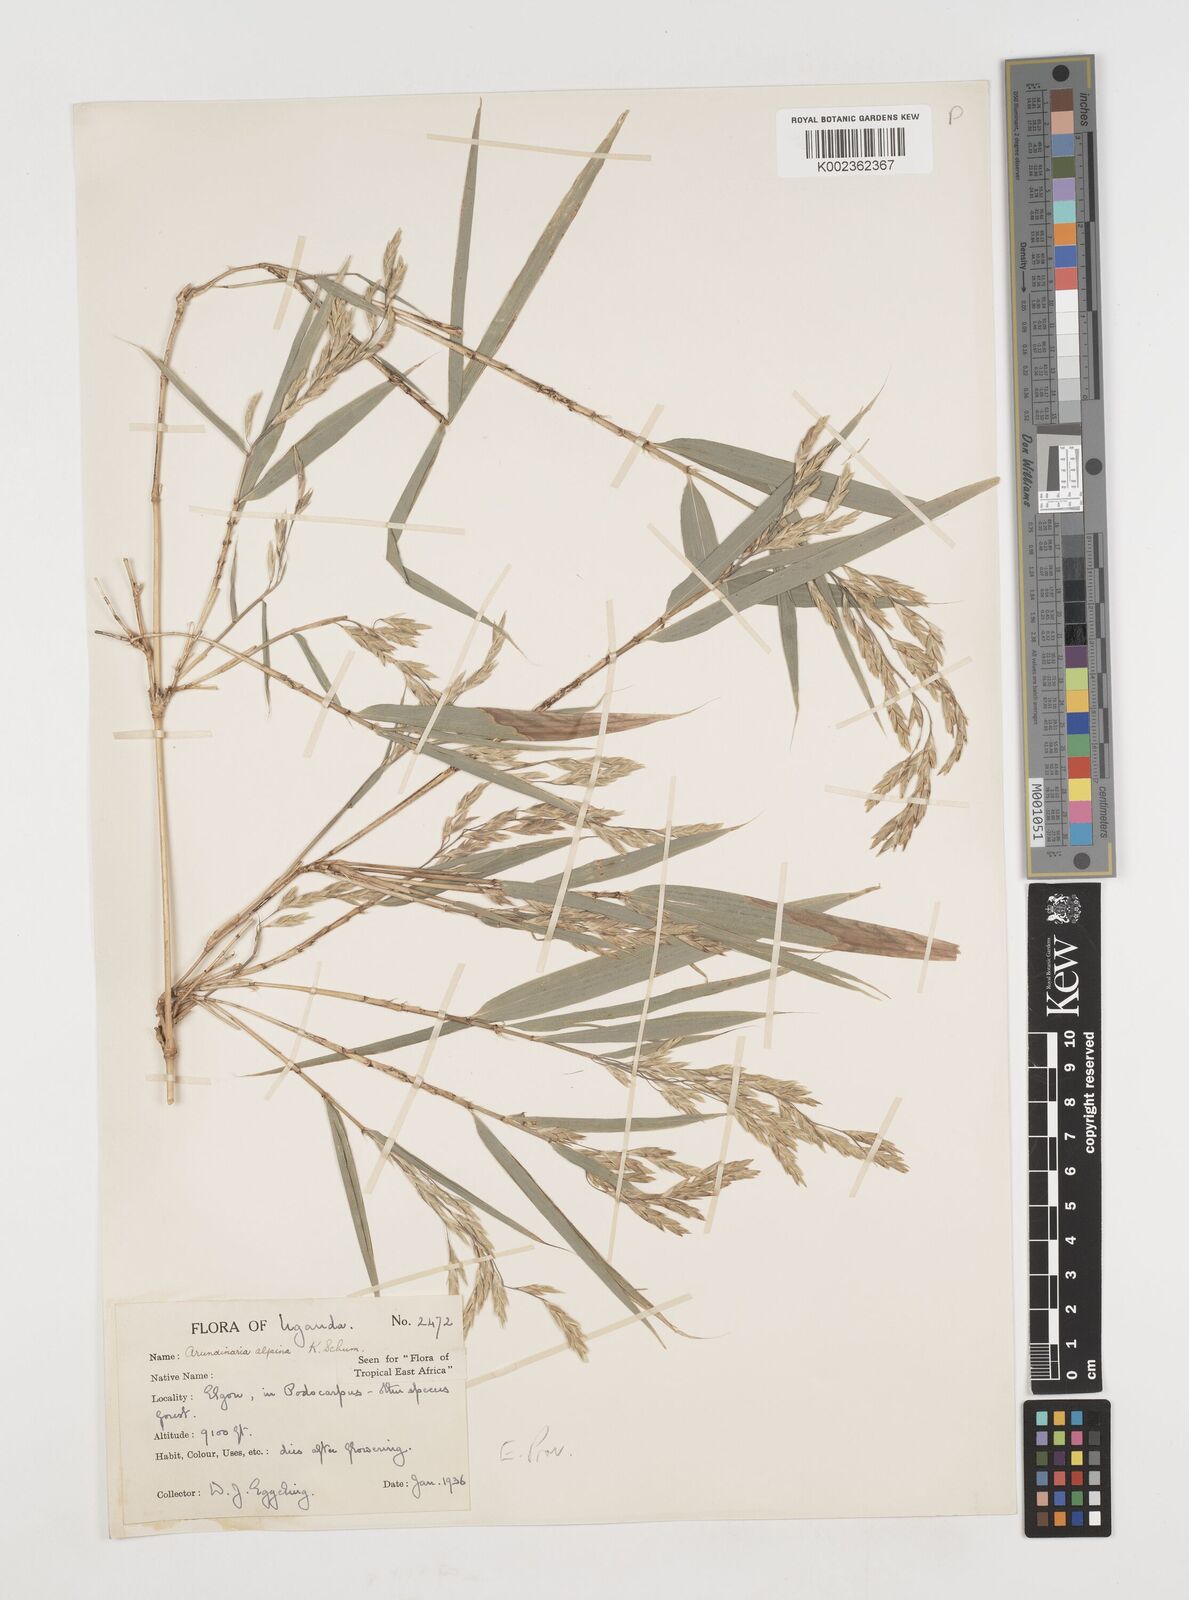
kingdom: Plantae
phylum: Tracheophyta
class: Liliopsida
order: Poales
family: Poaceae
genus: Oldeania
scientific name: Oldeania alpina
